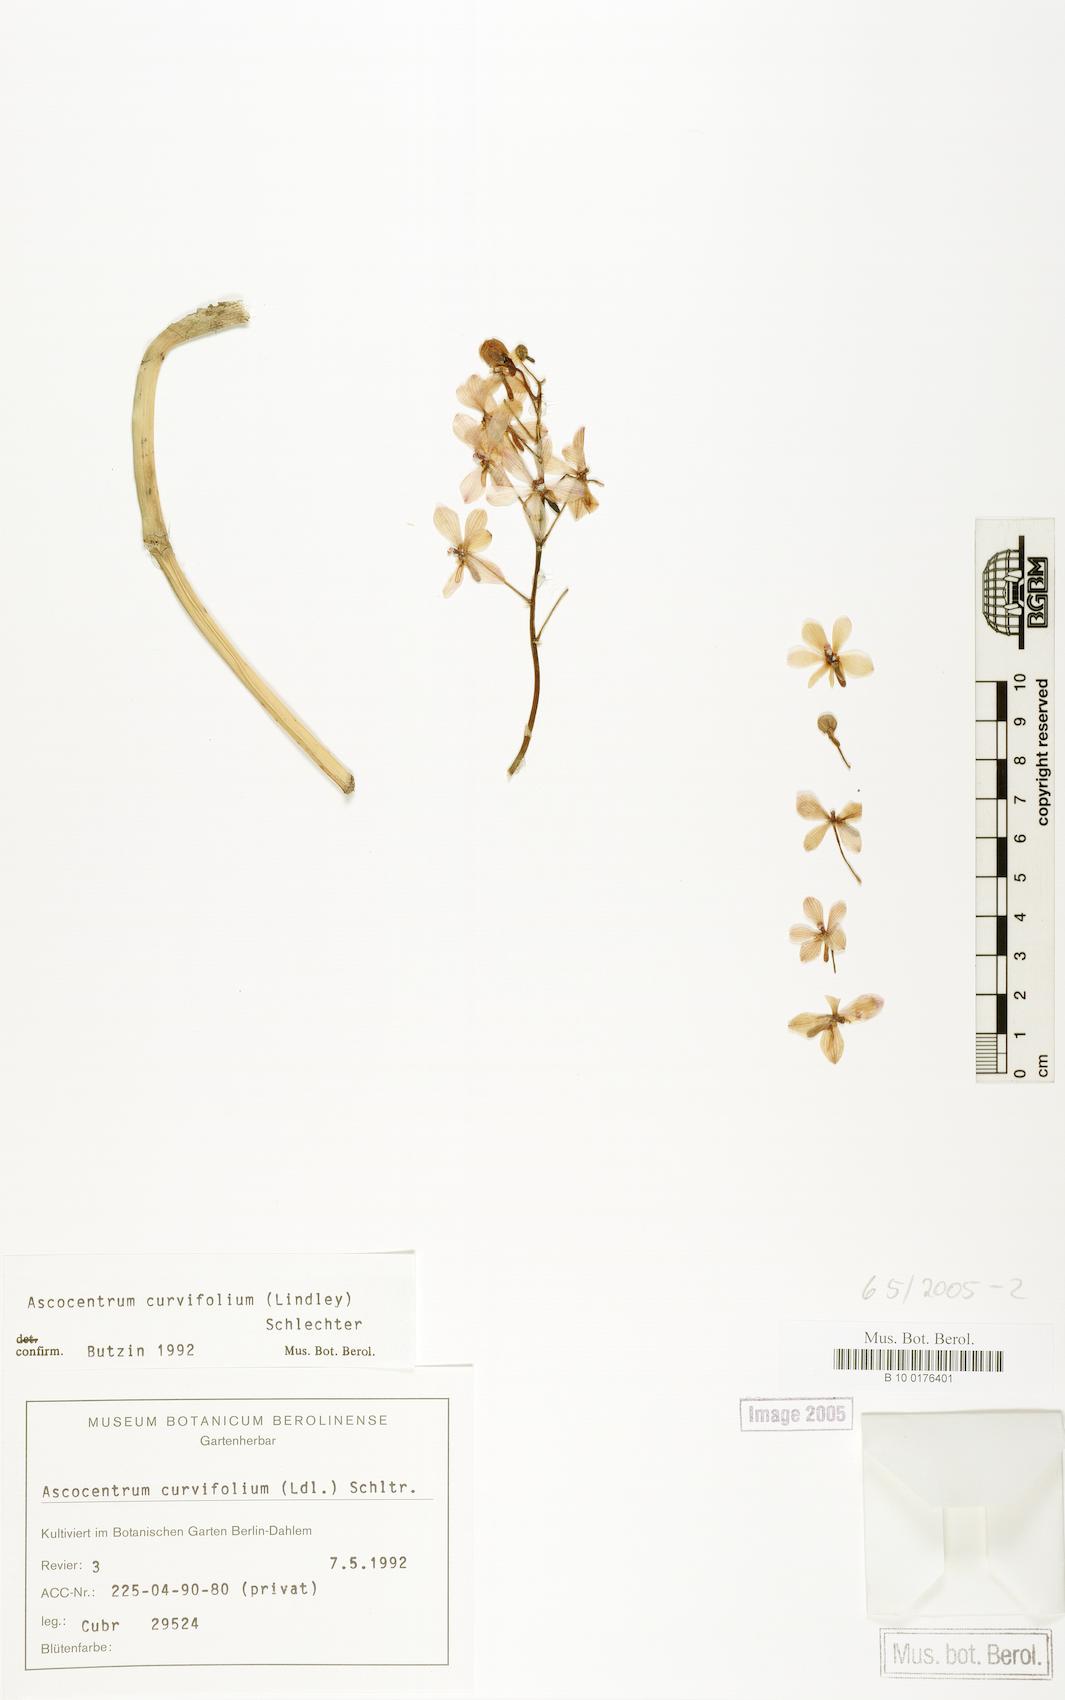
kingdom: Plantae
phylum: Tracheophyta
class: Liliopsida
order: Asparagales
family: Orchidaceae
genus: Vanda
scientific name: Vanda curvifolia
